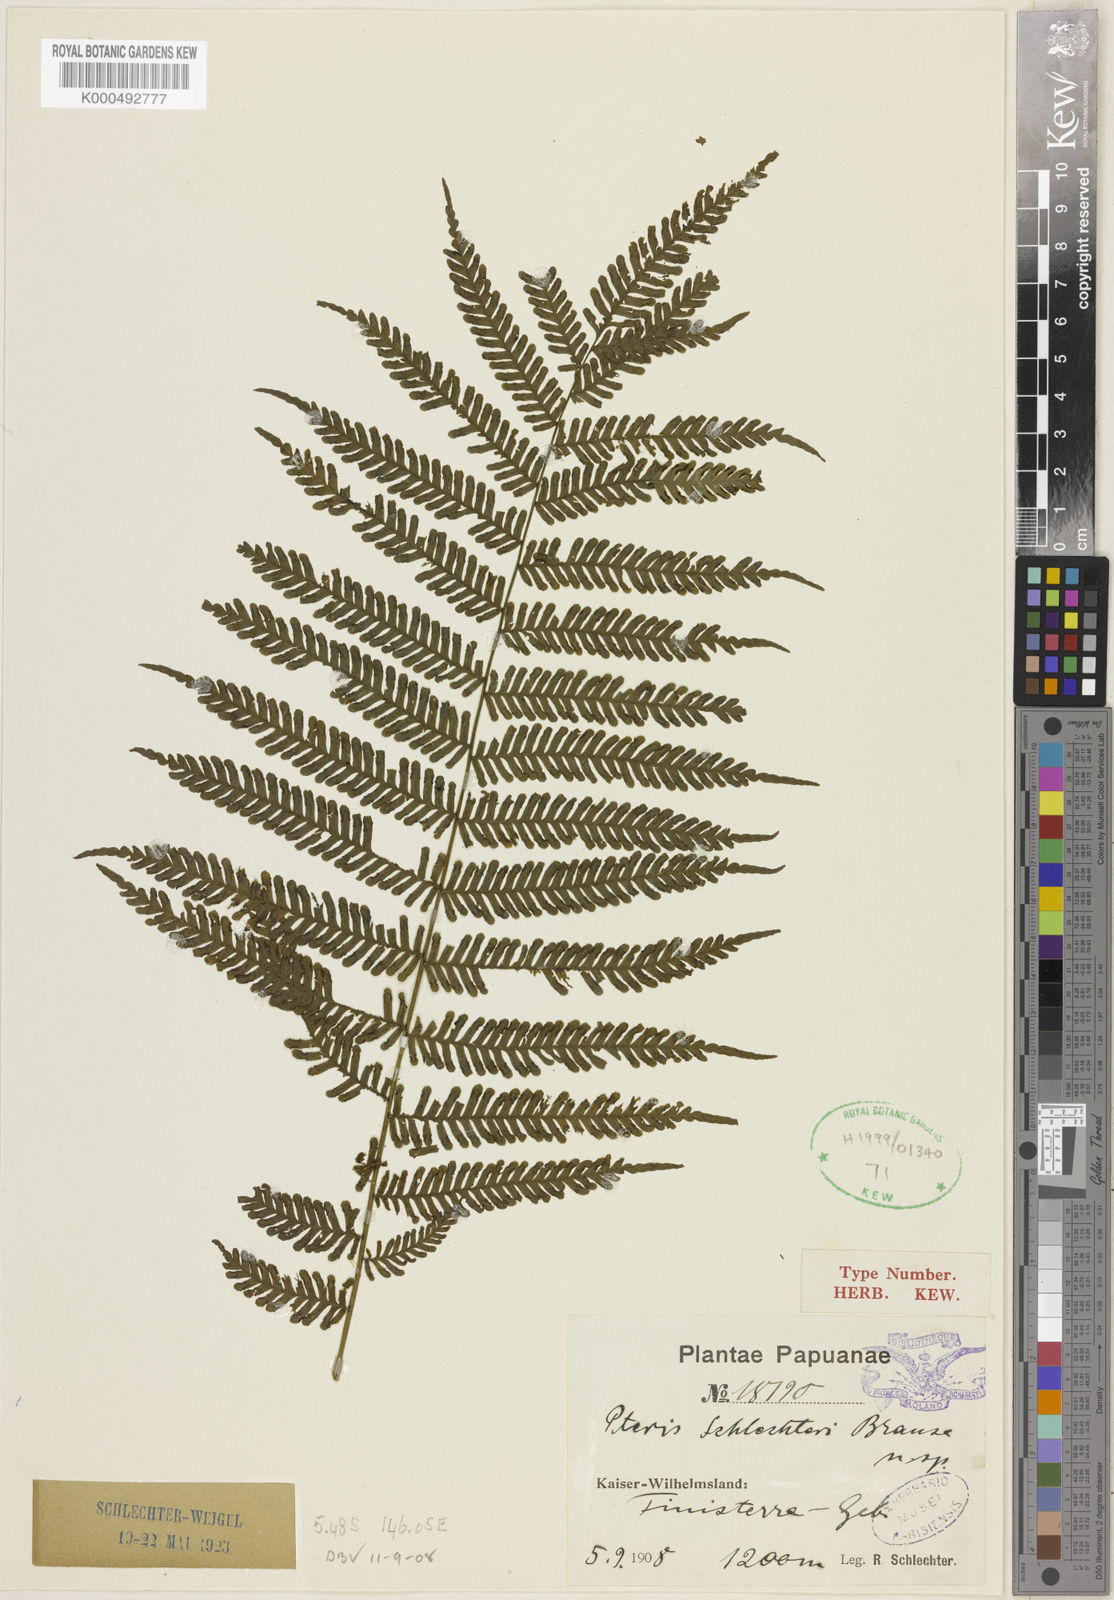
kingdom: Plantae
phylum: Tracheophyta
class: Polypodiopsida
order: Polypodiales
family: Pteridaceae
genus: Pteris
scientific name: Pteris schlechteri
